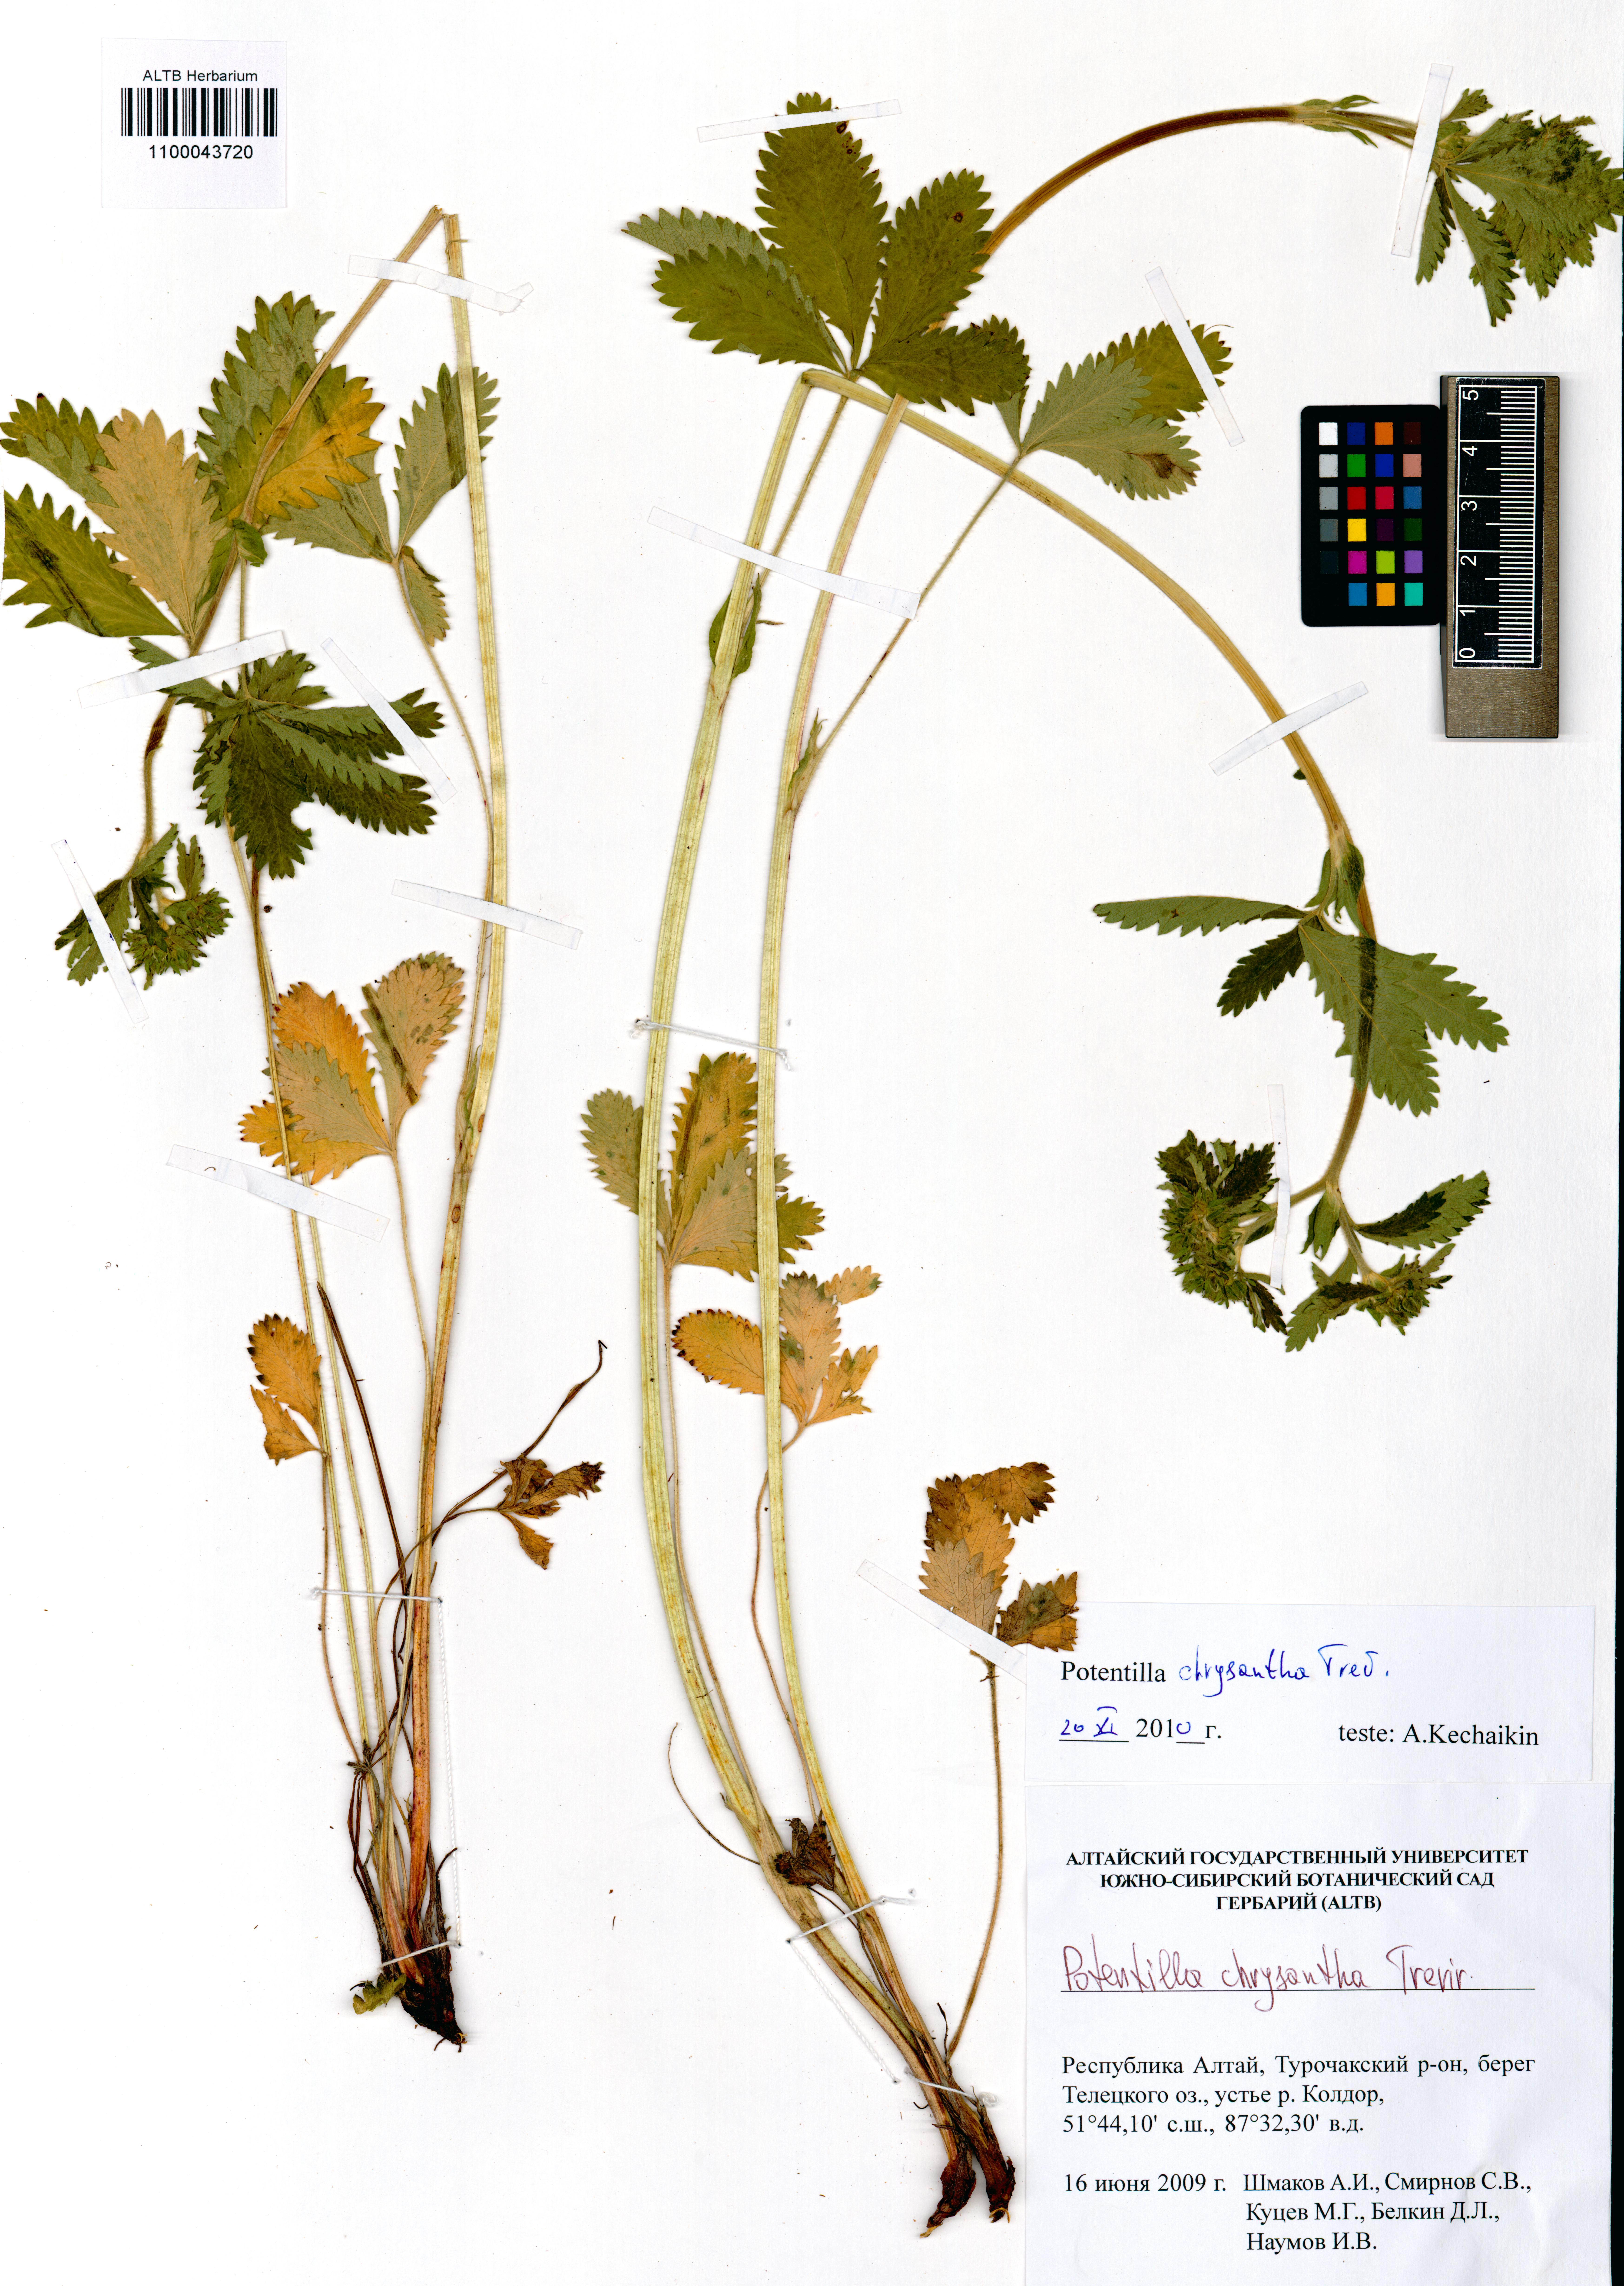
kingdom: Plantae
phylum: Tracheophyta
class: Magnoliopsida
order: Rosales
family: Rosaceae
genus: Potentilla
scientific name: Potentilla chrysantha
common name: Thuringian cinquefoil
